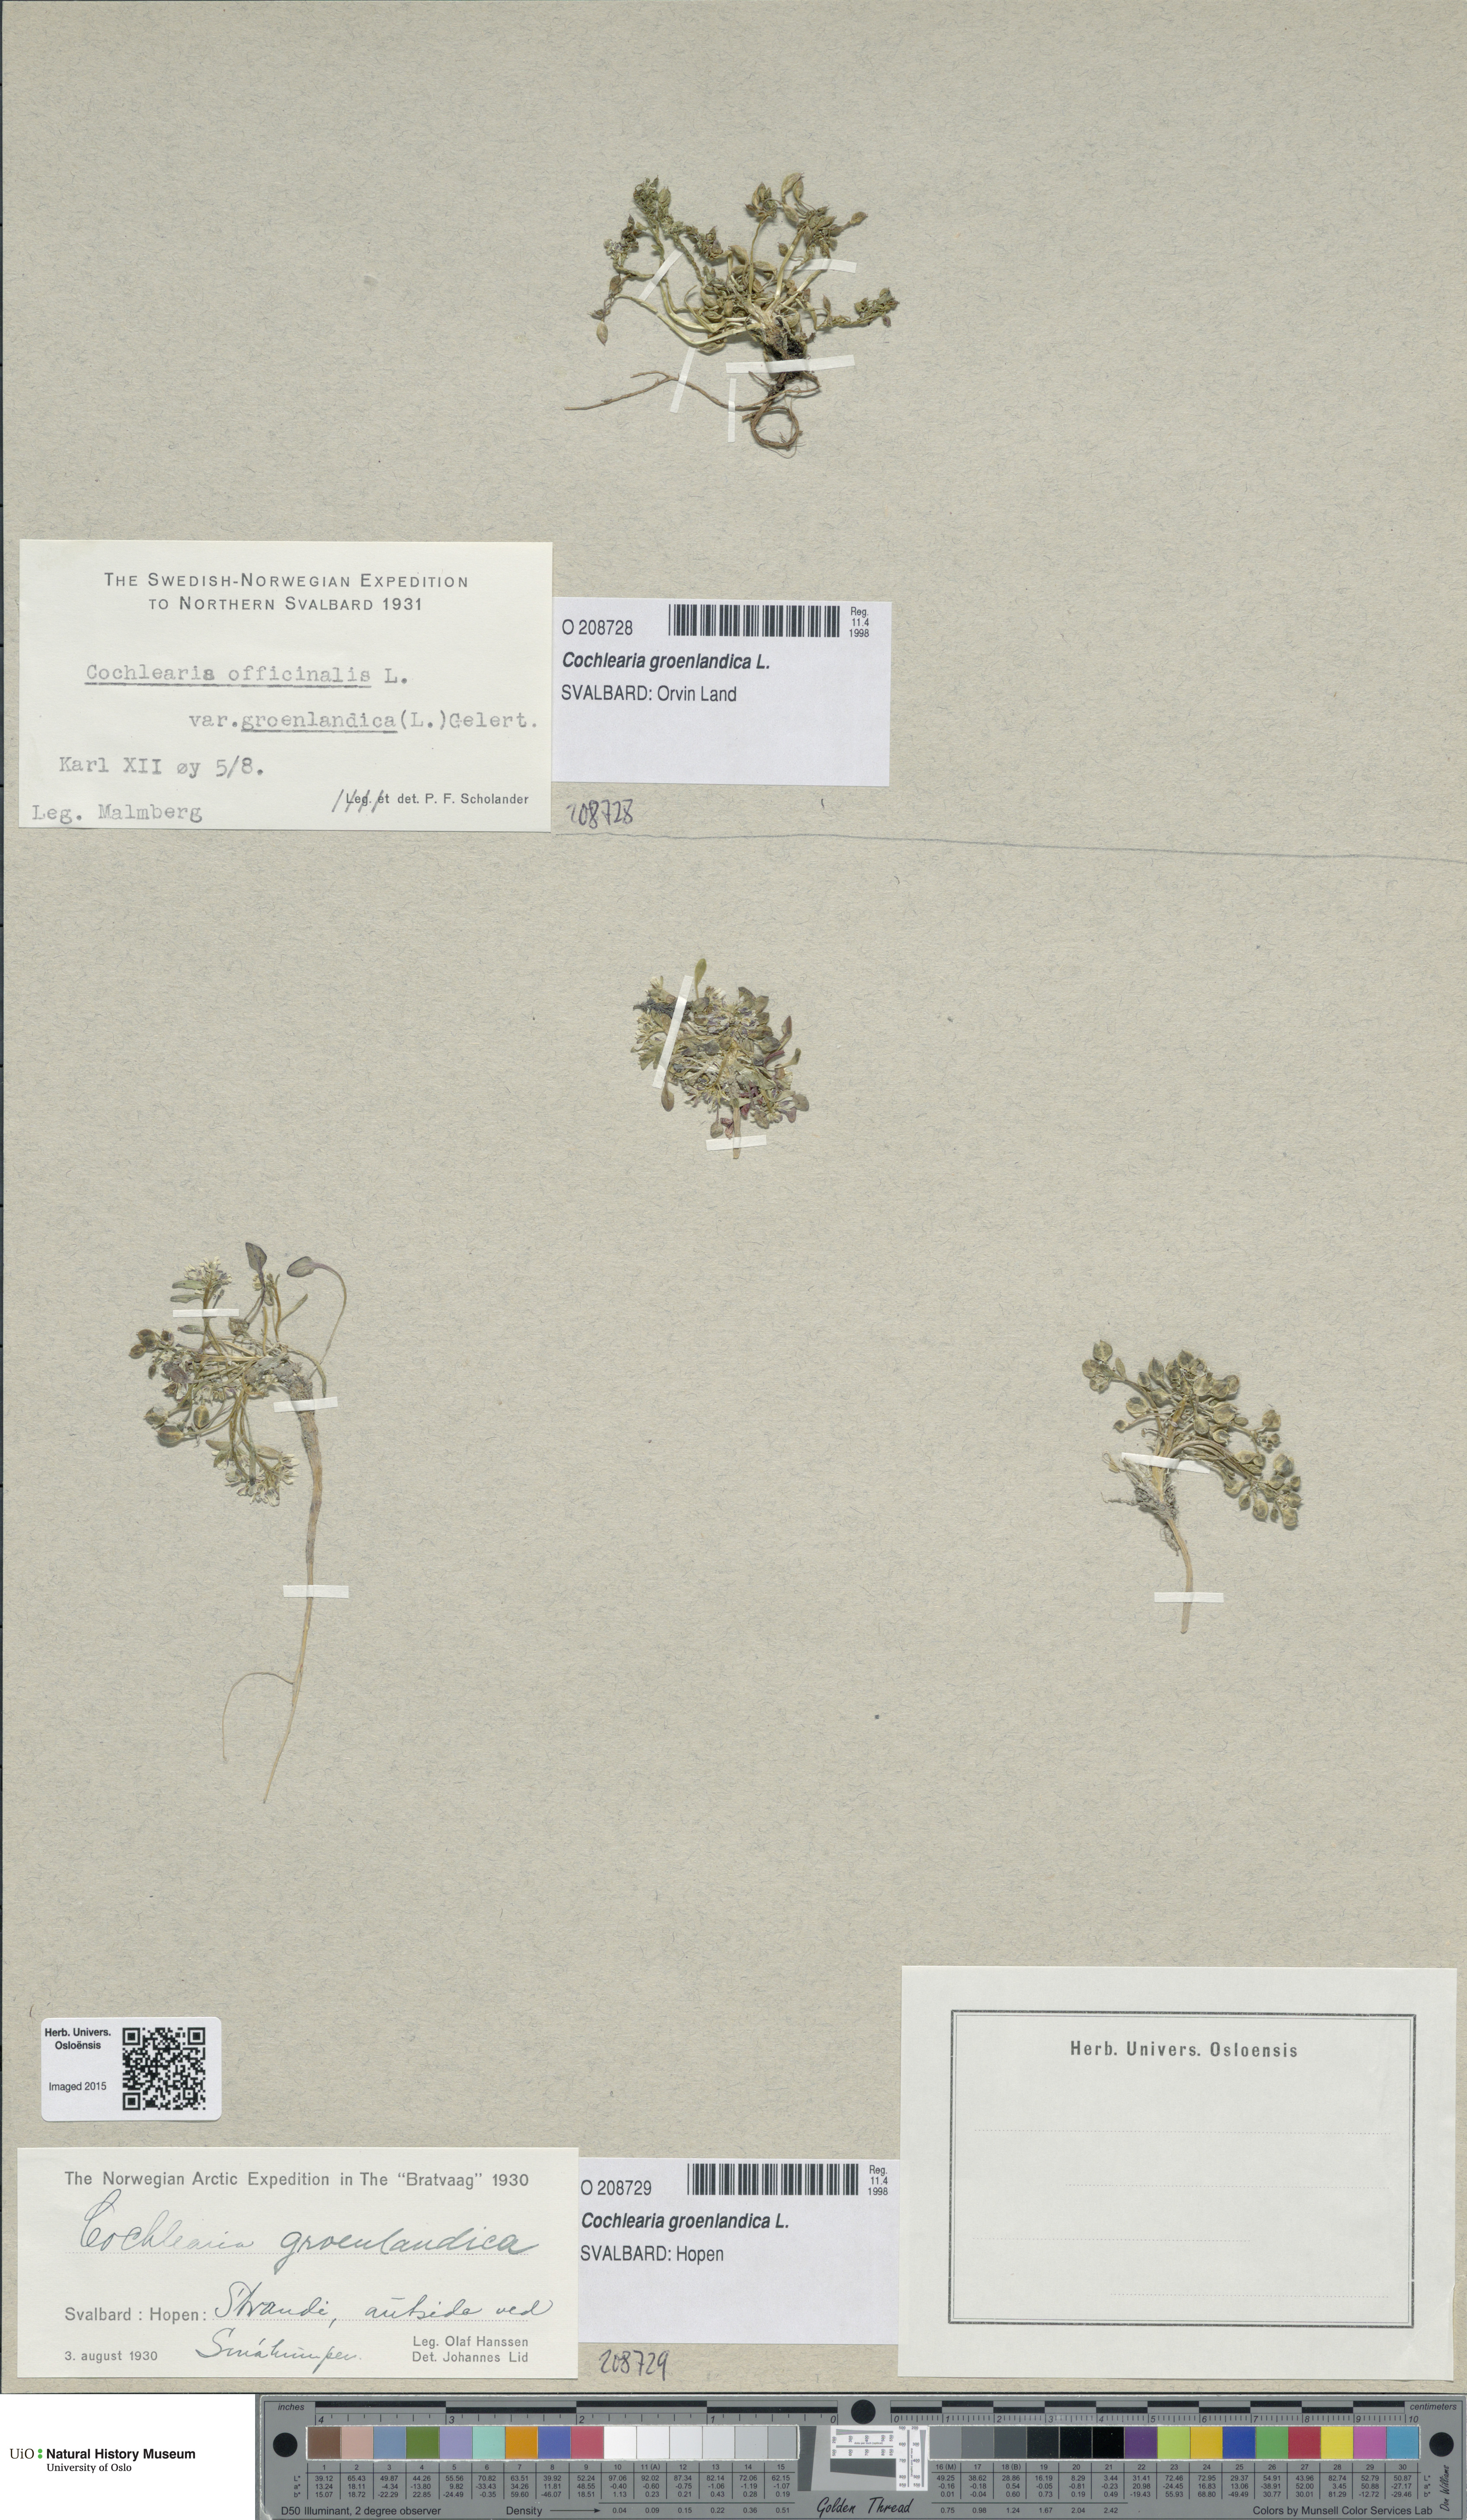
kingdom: Plantae
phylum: Tracheophyta
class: Magnoliopsida
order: Brassicales
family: Brassicaceae
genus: Cochlearia
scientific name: Cochlearia groenlandica
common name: Danish scurvygrass
